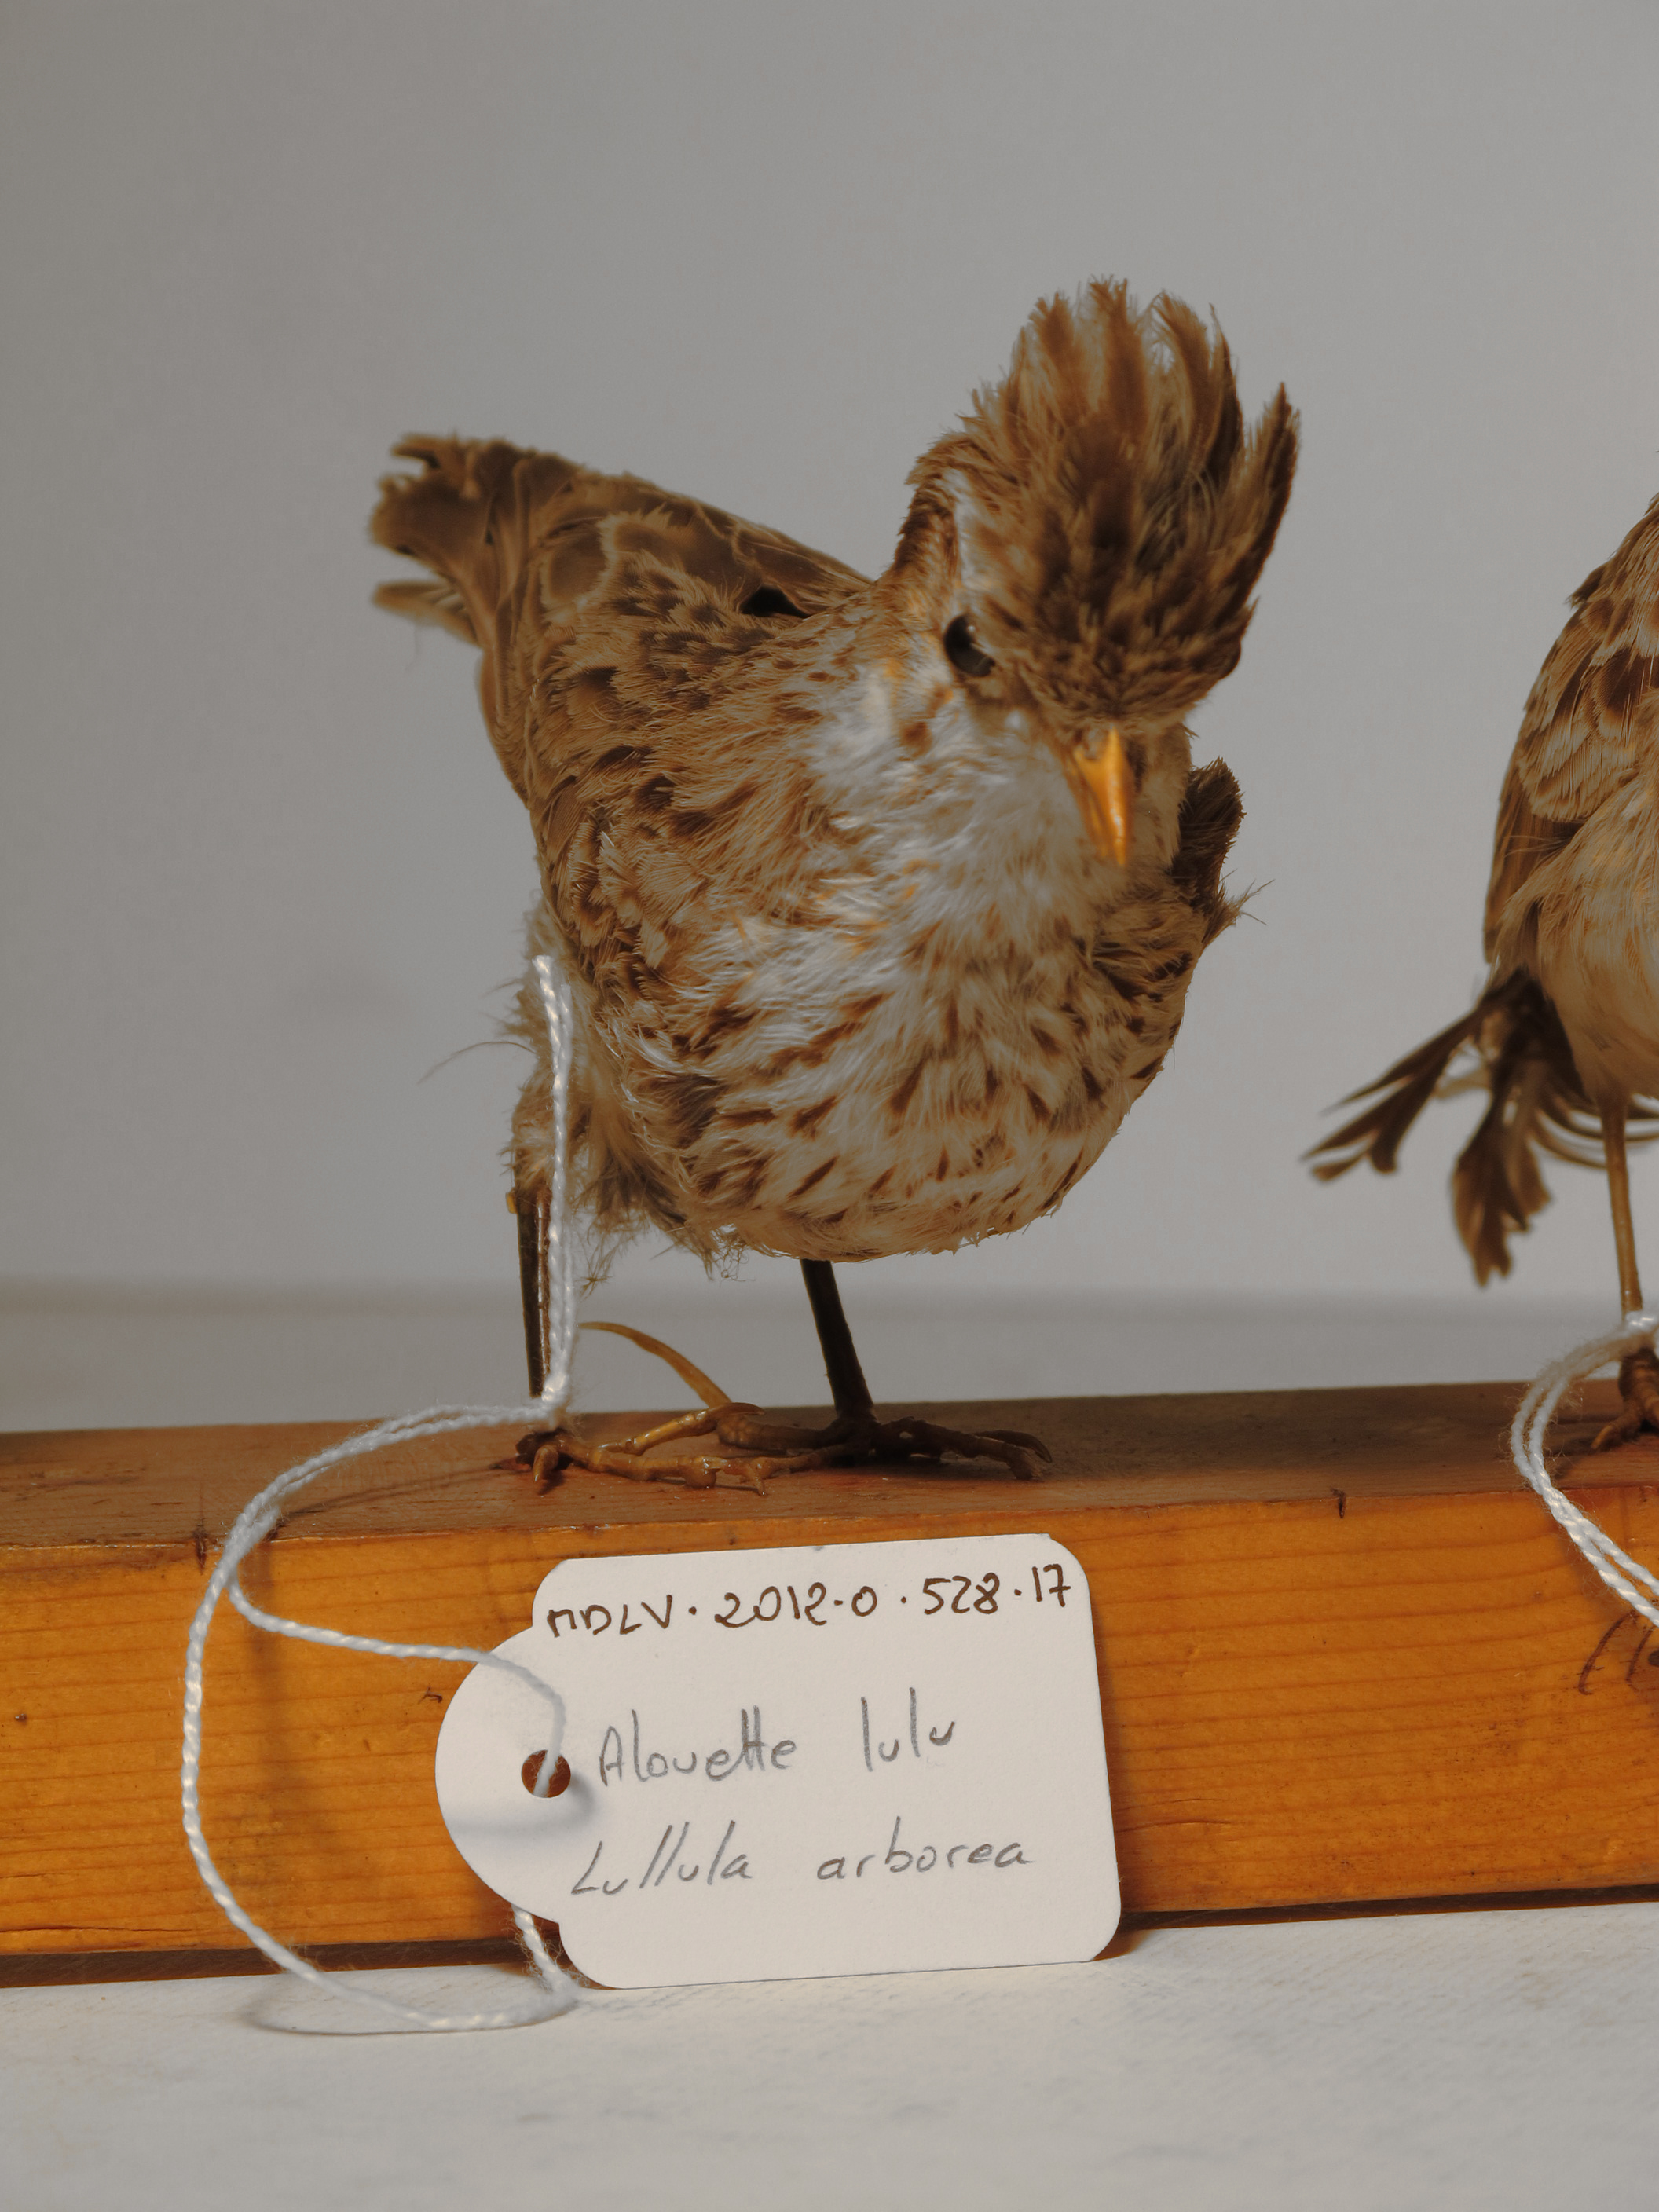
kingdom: Animalia
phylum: Chordata
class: Aves
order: Passeriformes
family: Alaudidae
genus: Lullula
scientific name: Lullula arborea
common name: Woodlark
